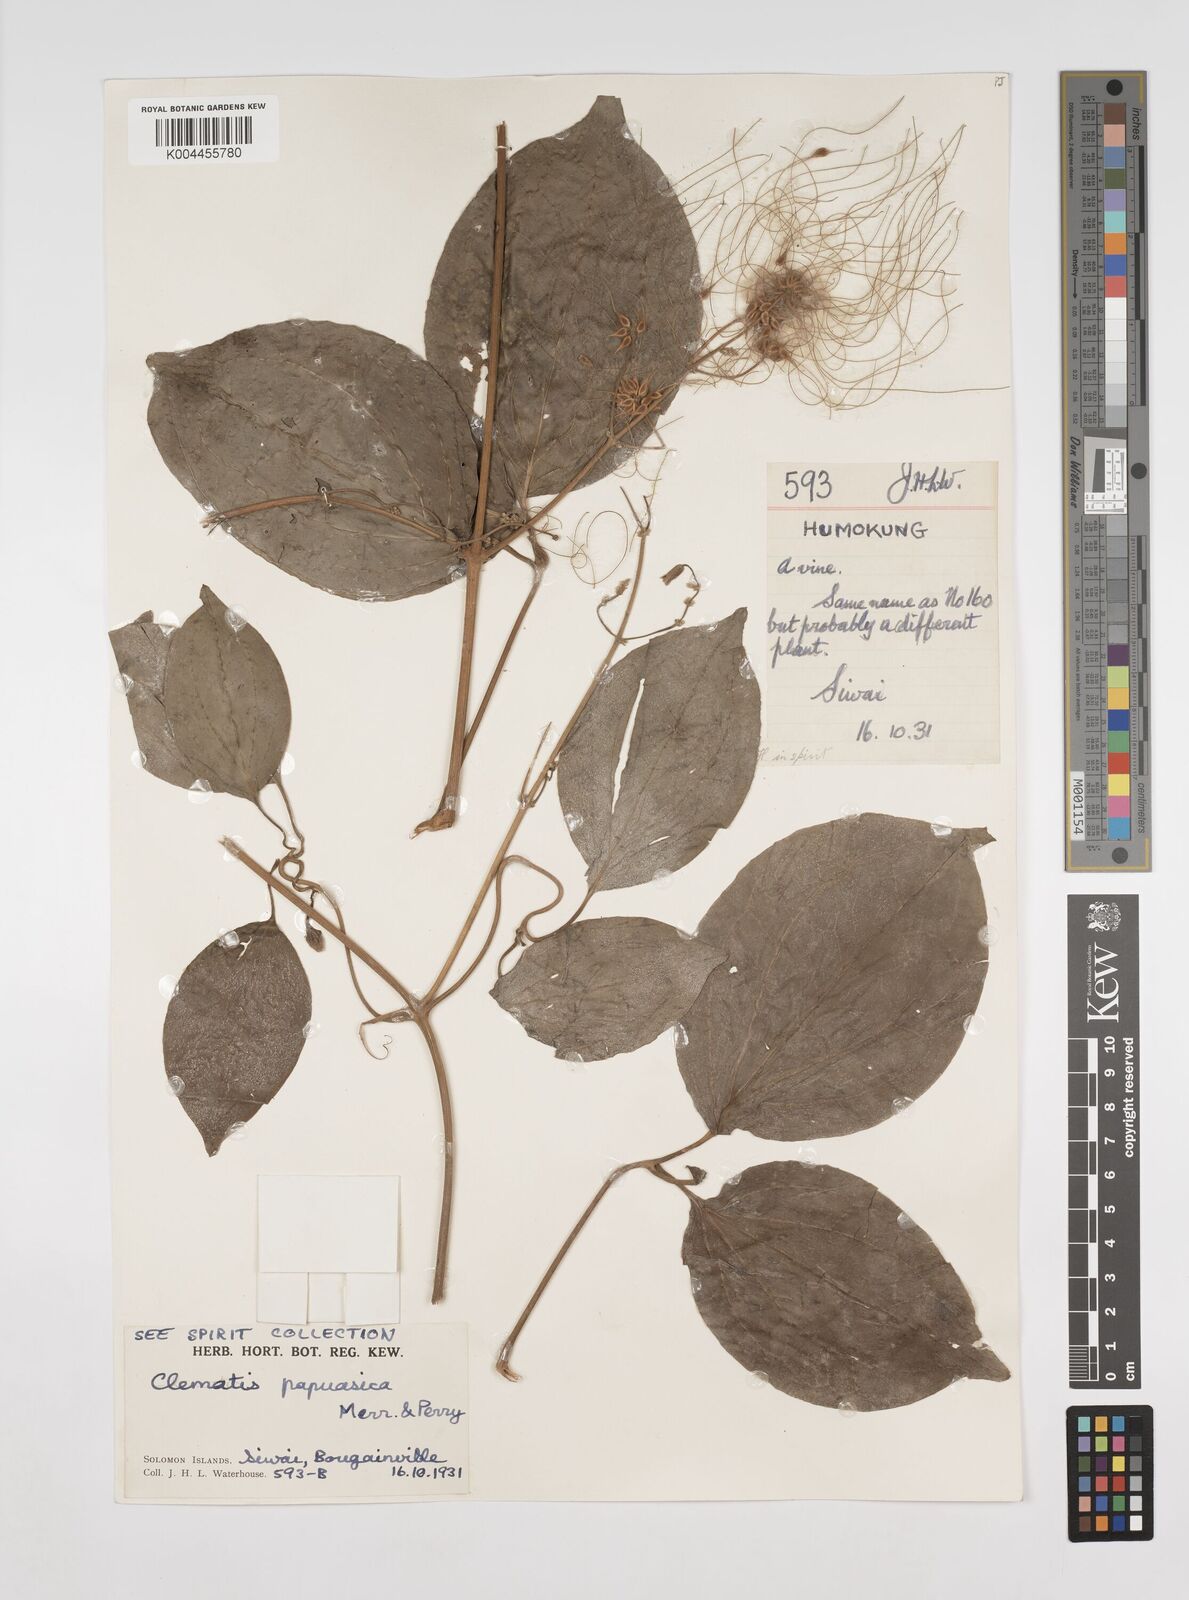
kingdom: Plantae
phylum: Tracheophyta
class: Magnoliopsida
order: Ranunculales
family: Ranunculaceae
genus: Clematis
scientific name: Clematis papuasica
